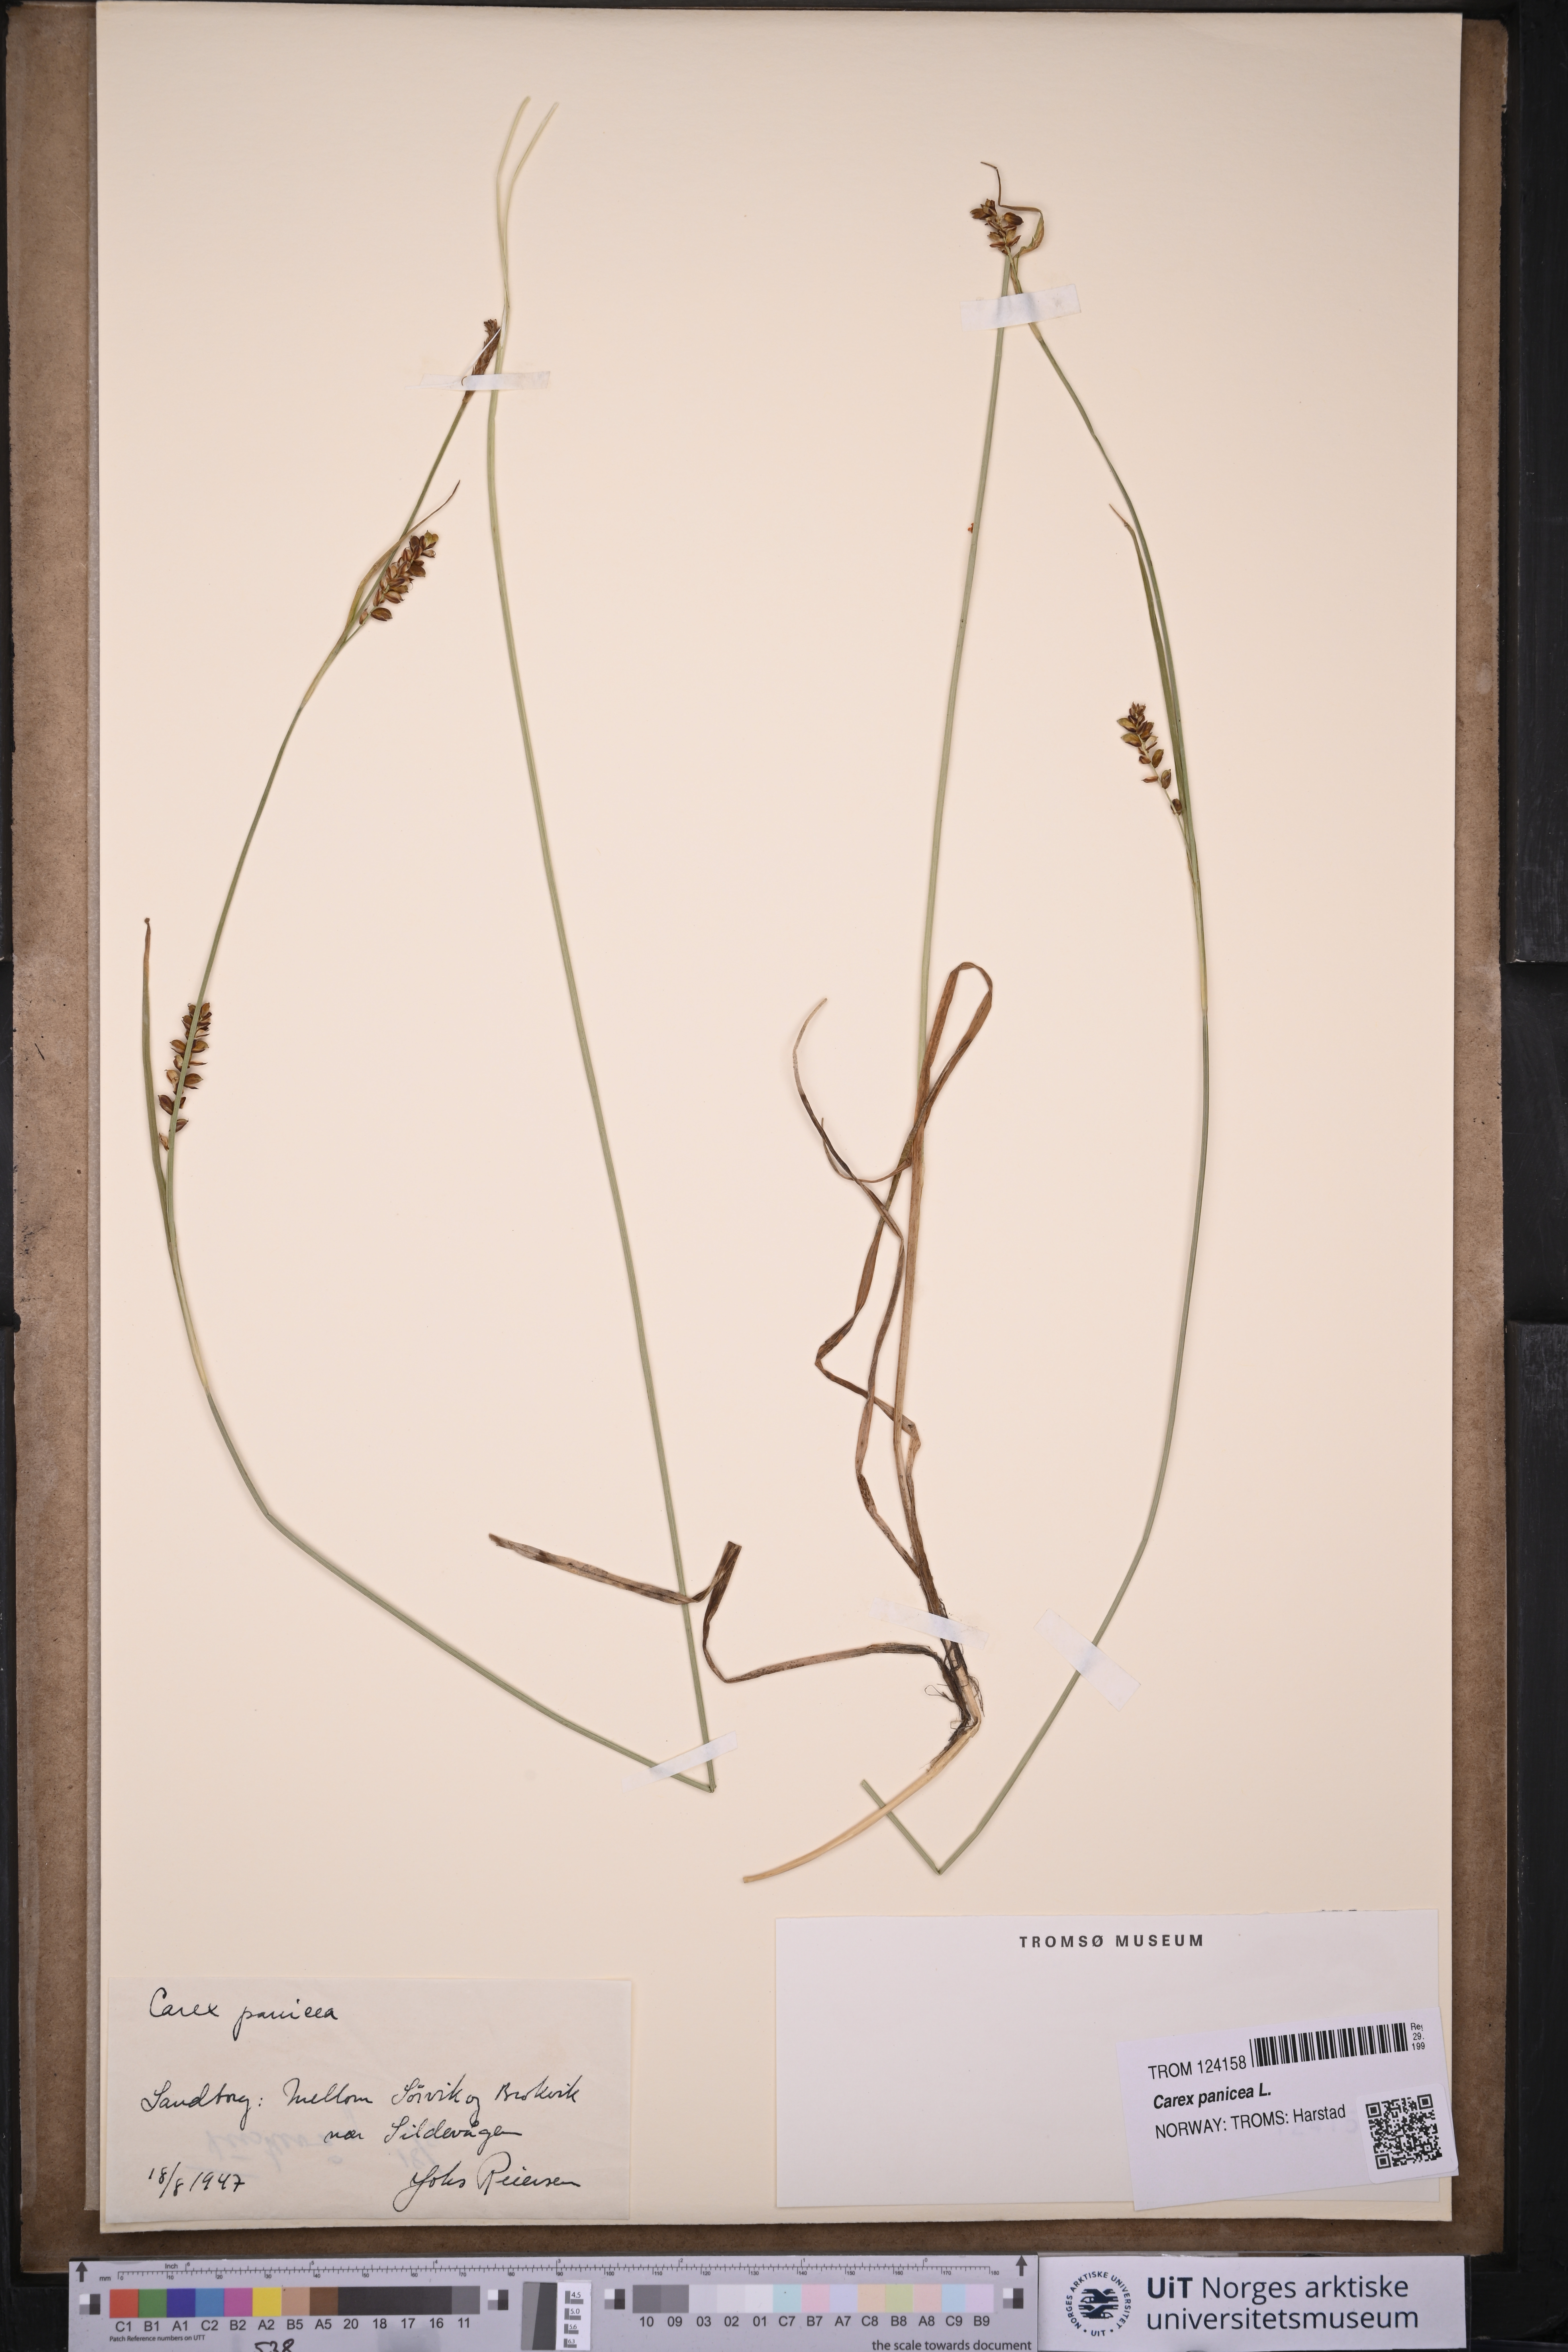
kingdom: Plantae
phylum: Tracheophyta
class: Liliopsida
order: Poales
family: Cyperaceae
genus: Carex
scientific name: Carex panicea
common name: Carnation sedge
